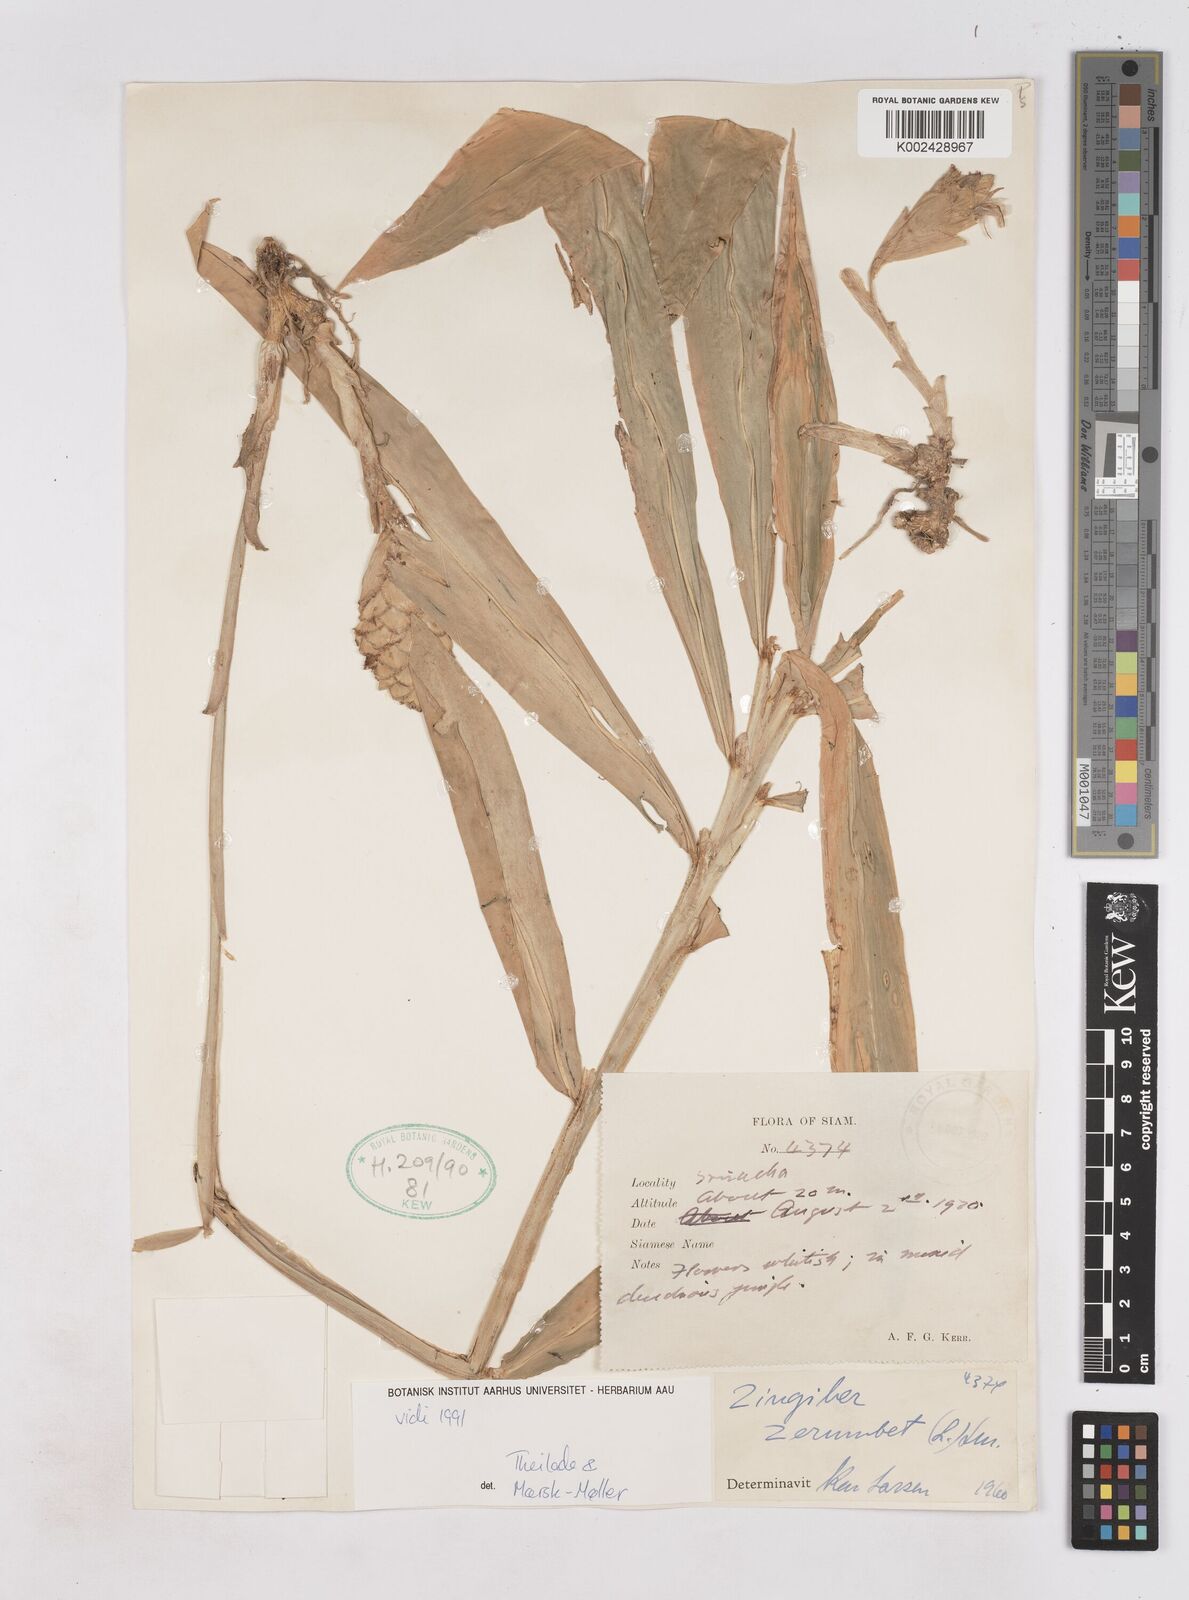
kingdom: Plantae
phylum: Tracheophyta
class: Liliopsida
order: Zingiberales
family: Zingiberaceae
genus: Zingiber
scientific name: Zingiber zerumbet
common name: Bitter ginger
